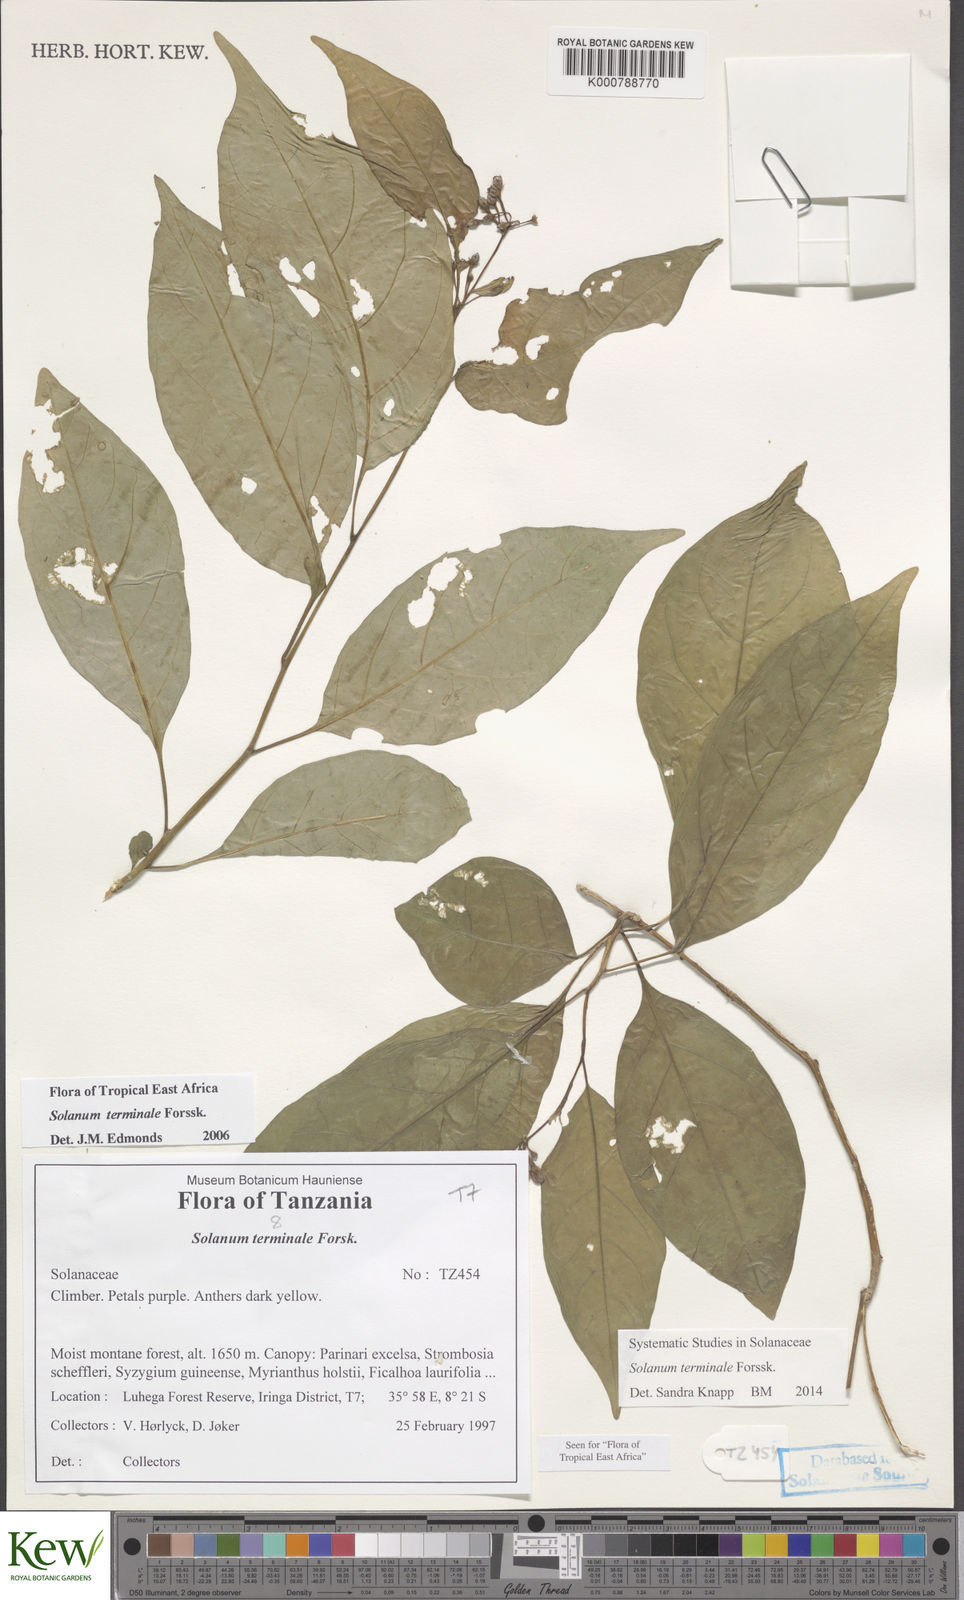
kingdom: Plantae
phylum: Tracheophyta
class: Magnoliopsida
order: Solanales
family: Solanaceae
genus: Solanum
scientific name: Solanum terminale
